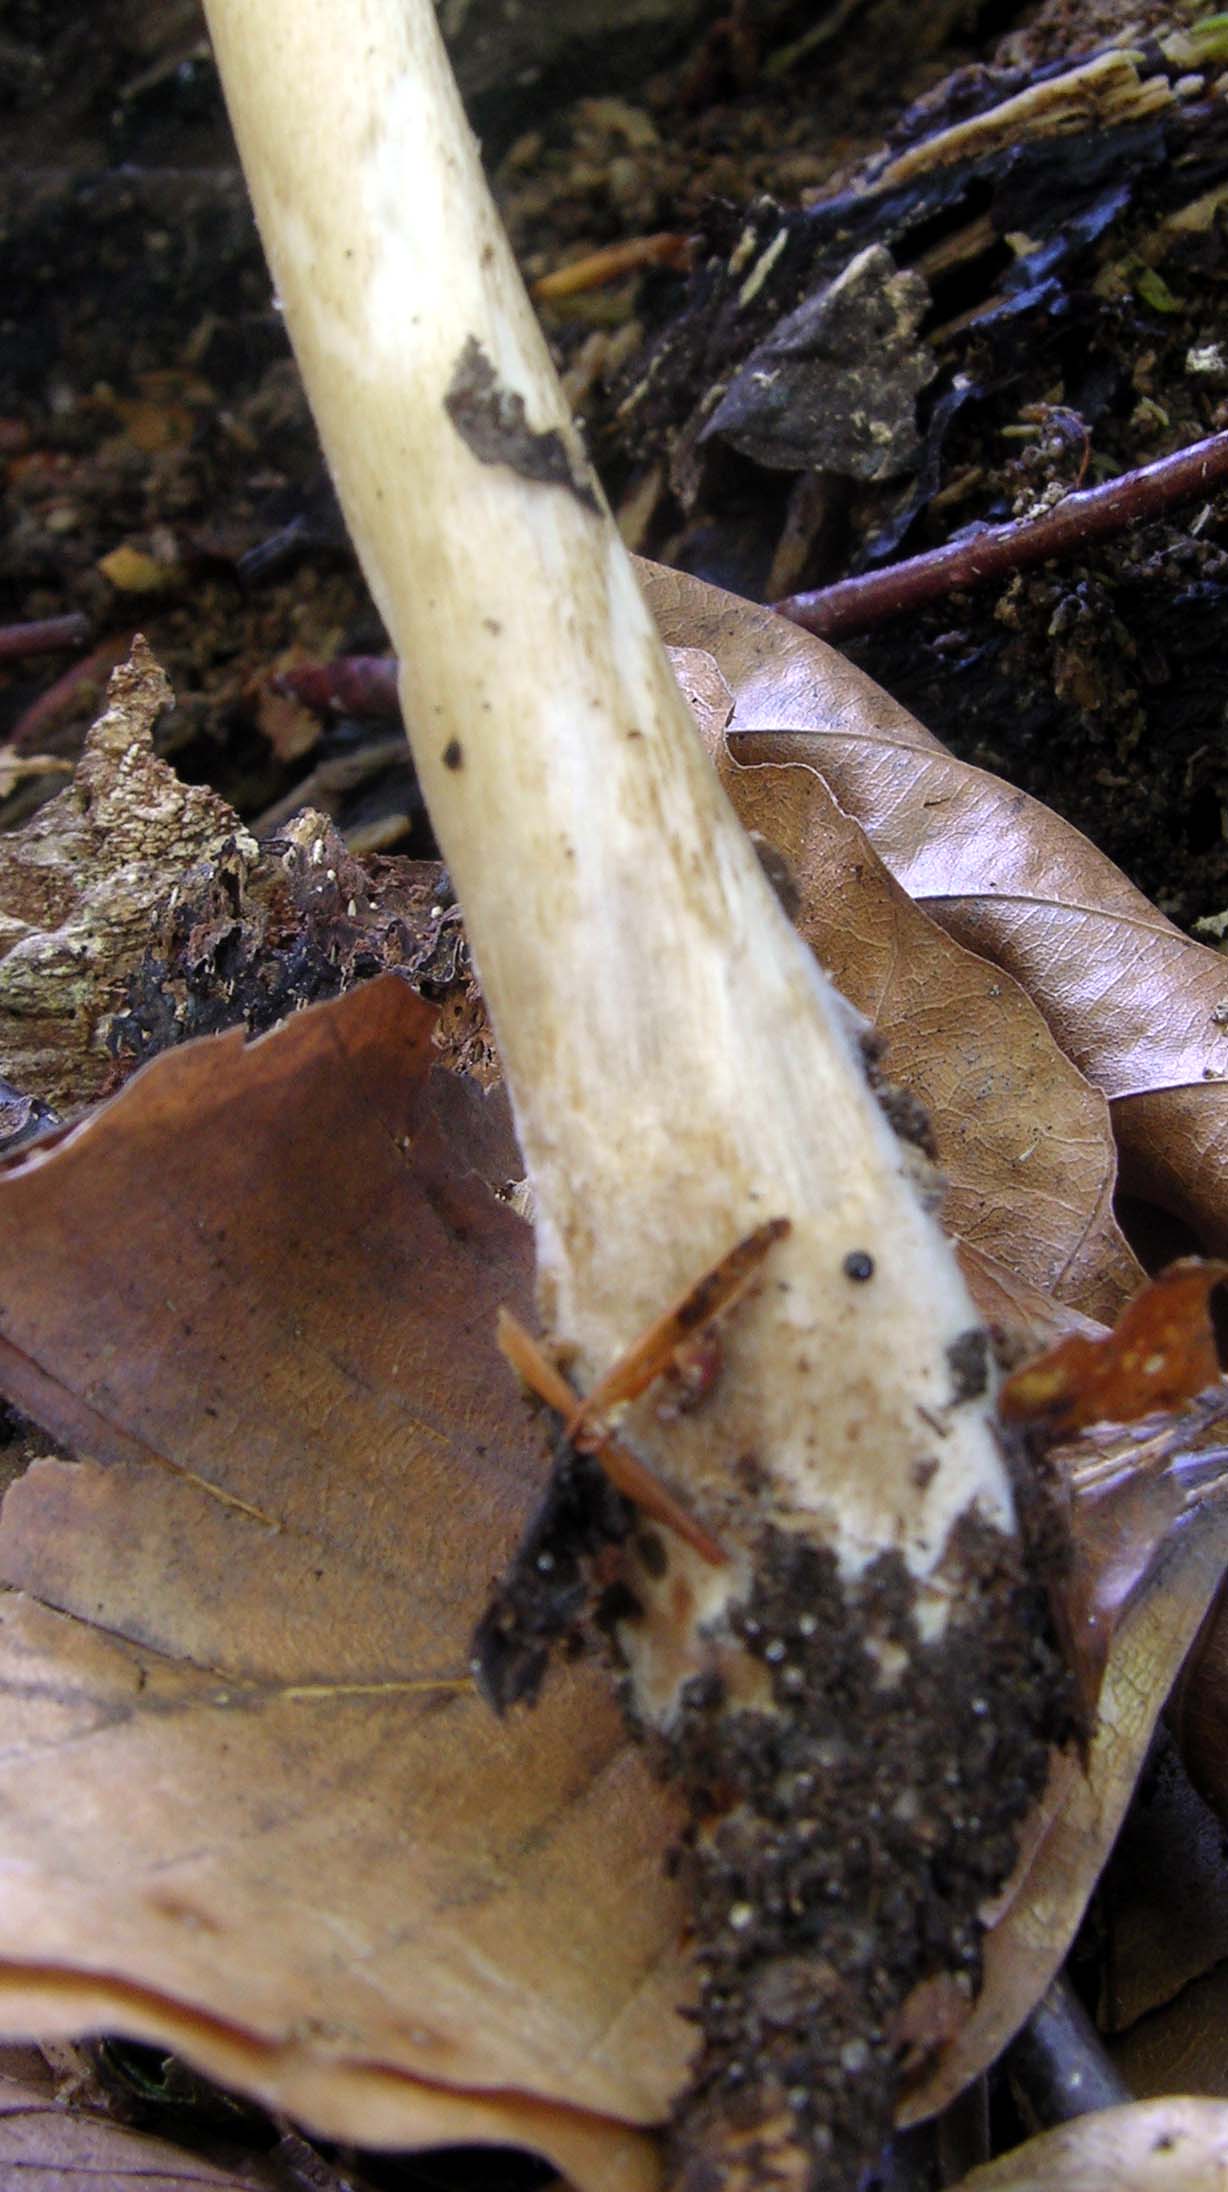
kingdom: Fungi
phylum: Basidiomycota
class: Agaricomycetes
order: Agaricales
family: Physalacriaceae
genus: Hymenopellis
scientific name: Hymenopellis radicata
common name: almindelig pælerodshat
